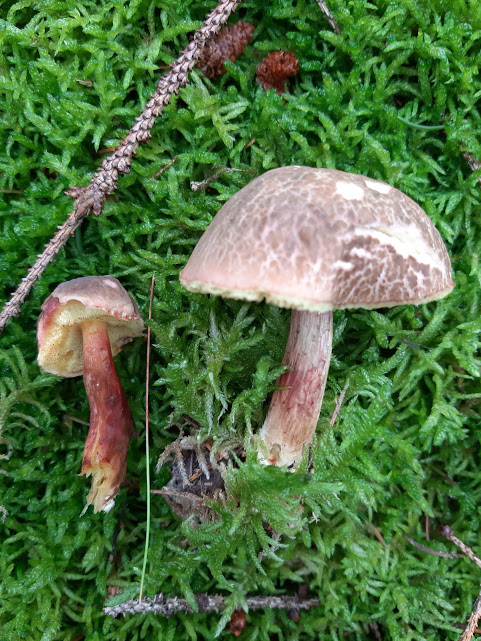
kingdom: Fungi
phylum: Basidiomycota
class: Agaricomycetes
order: Boletales
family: Boletaceae
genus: Xerocomellus
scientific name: Xerocomellus chrysenteron
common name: rødsprukken rørhat
